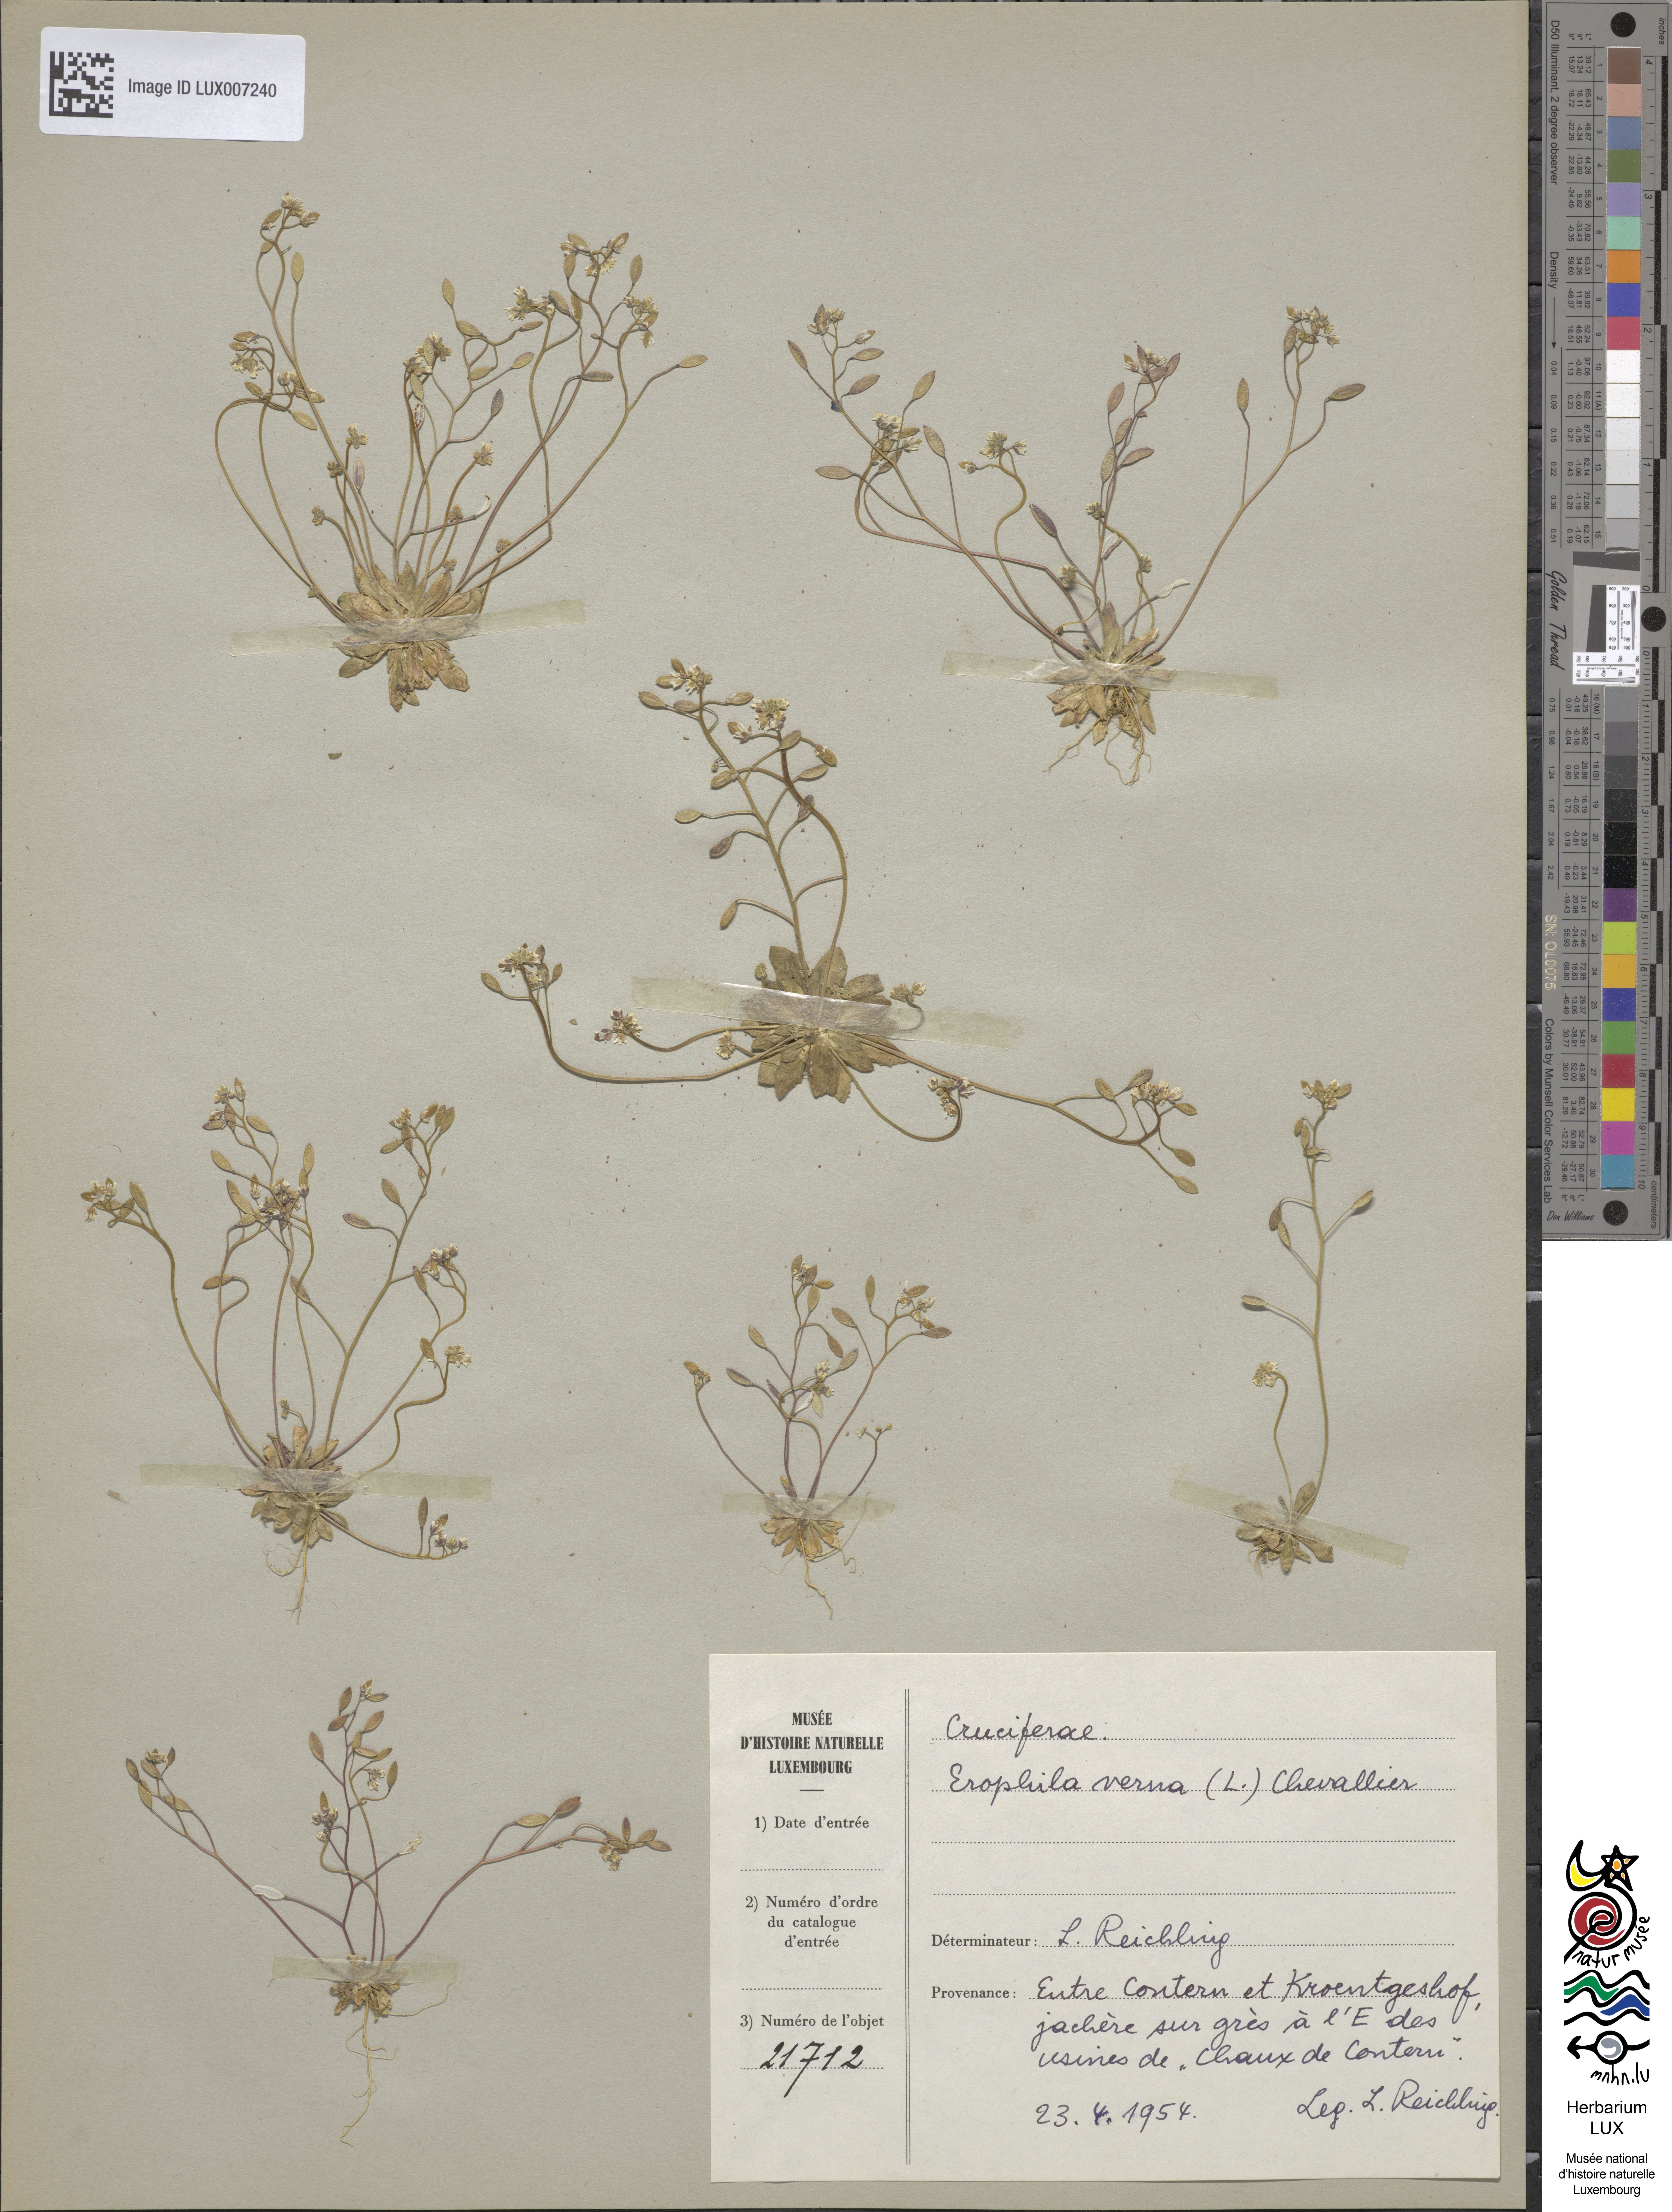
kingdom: Plantae
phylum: Tracheophyta
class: Magnoliopsida
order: Brassicales
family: Brassicaceae
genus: Draba
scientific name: Draba verna
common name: Spring draba
